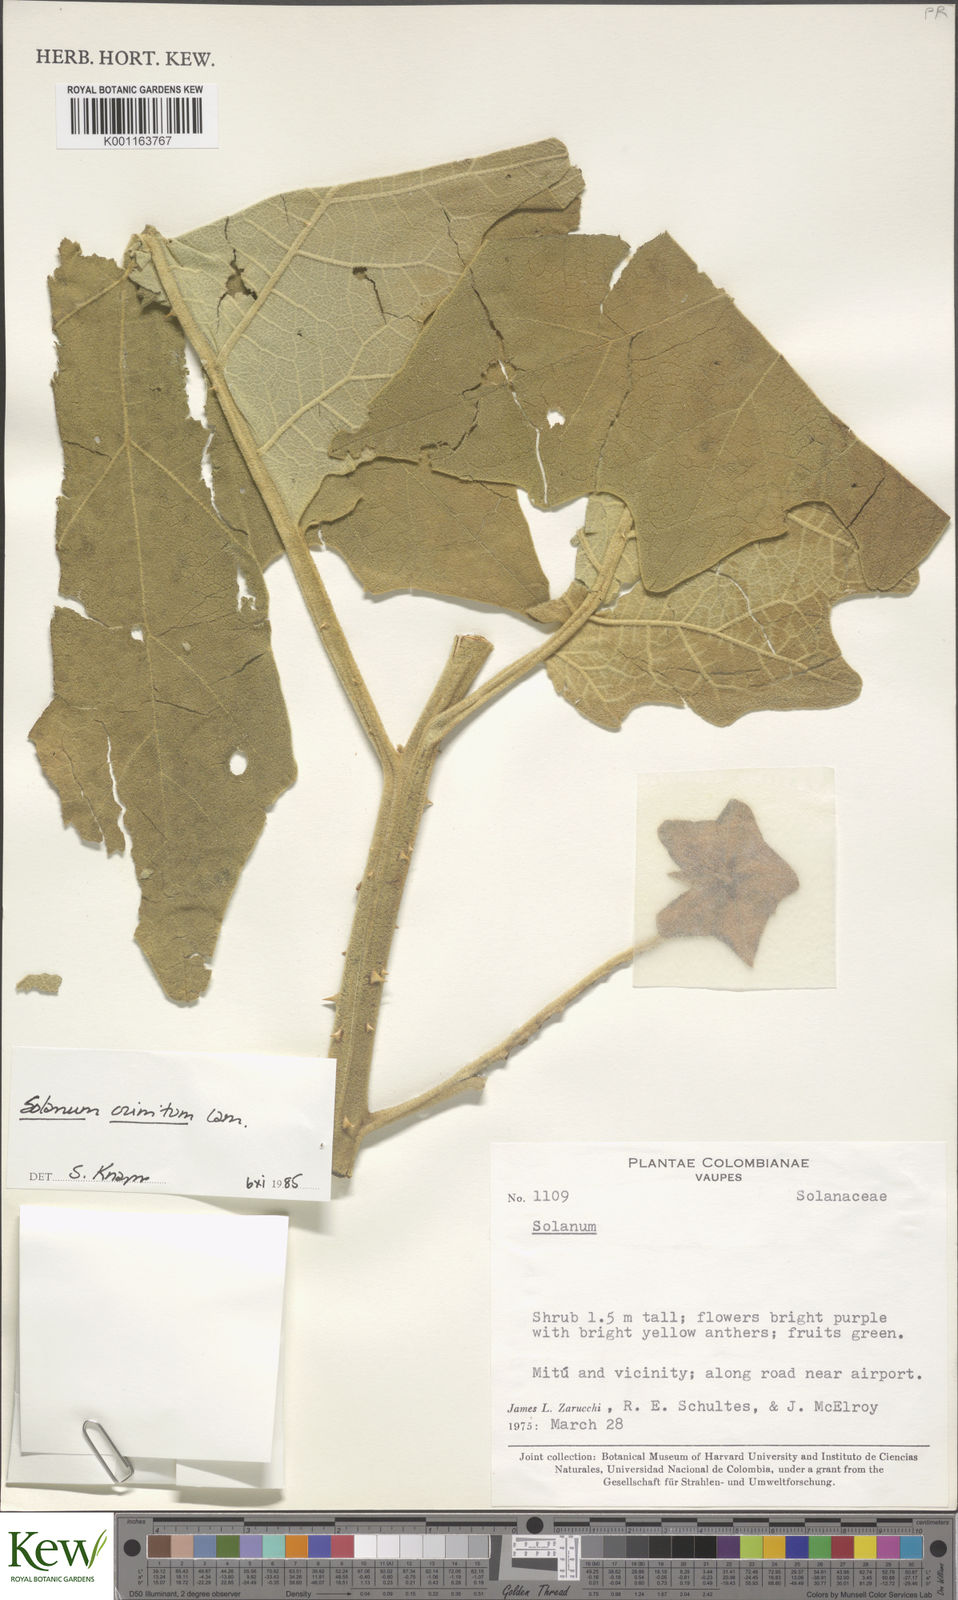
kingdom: Plantae
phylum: Tracheophyta
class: Magnoliopsida
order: Solanales
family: Solanaceae
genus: Solanum
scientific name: Solanum crinitum
